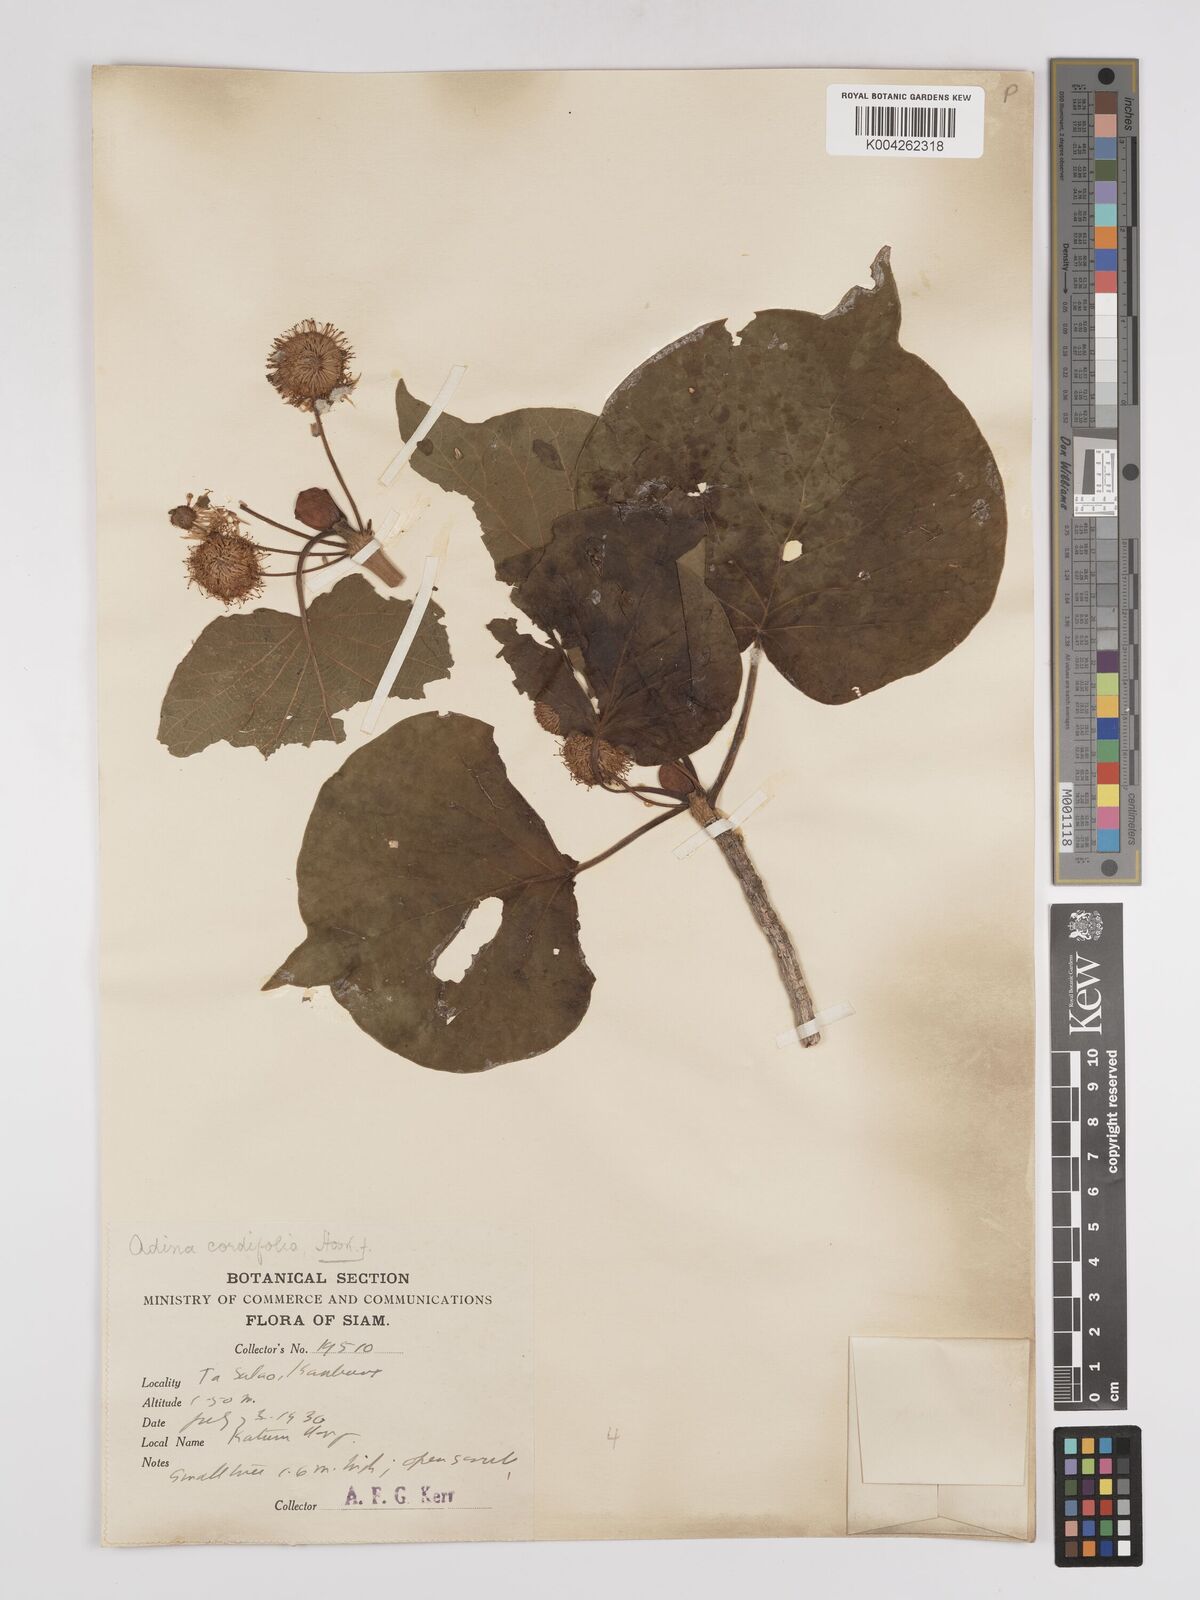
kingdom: Plantae
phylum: Tracheophyta
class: Magnoliopsida
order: Gentianales
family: Rubiaceae
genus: Adina
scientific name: Adina cordifolia
